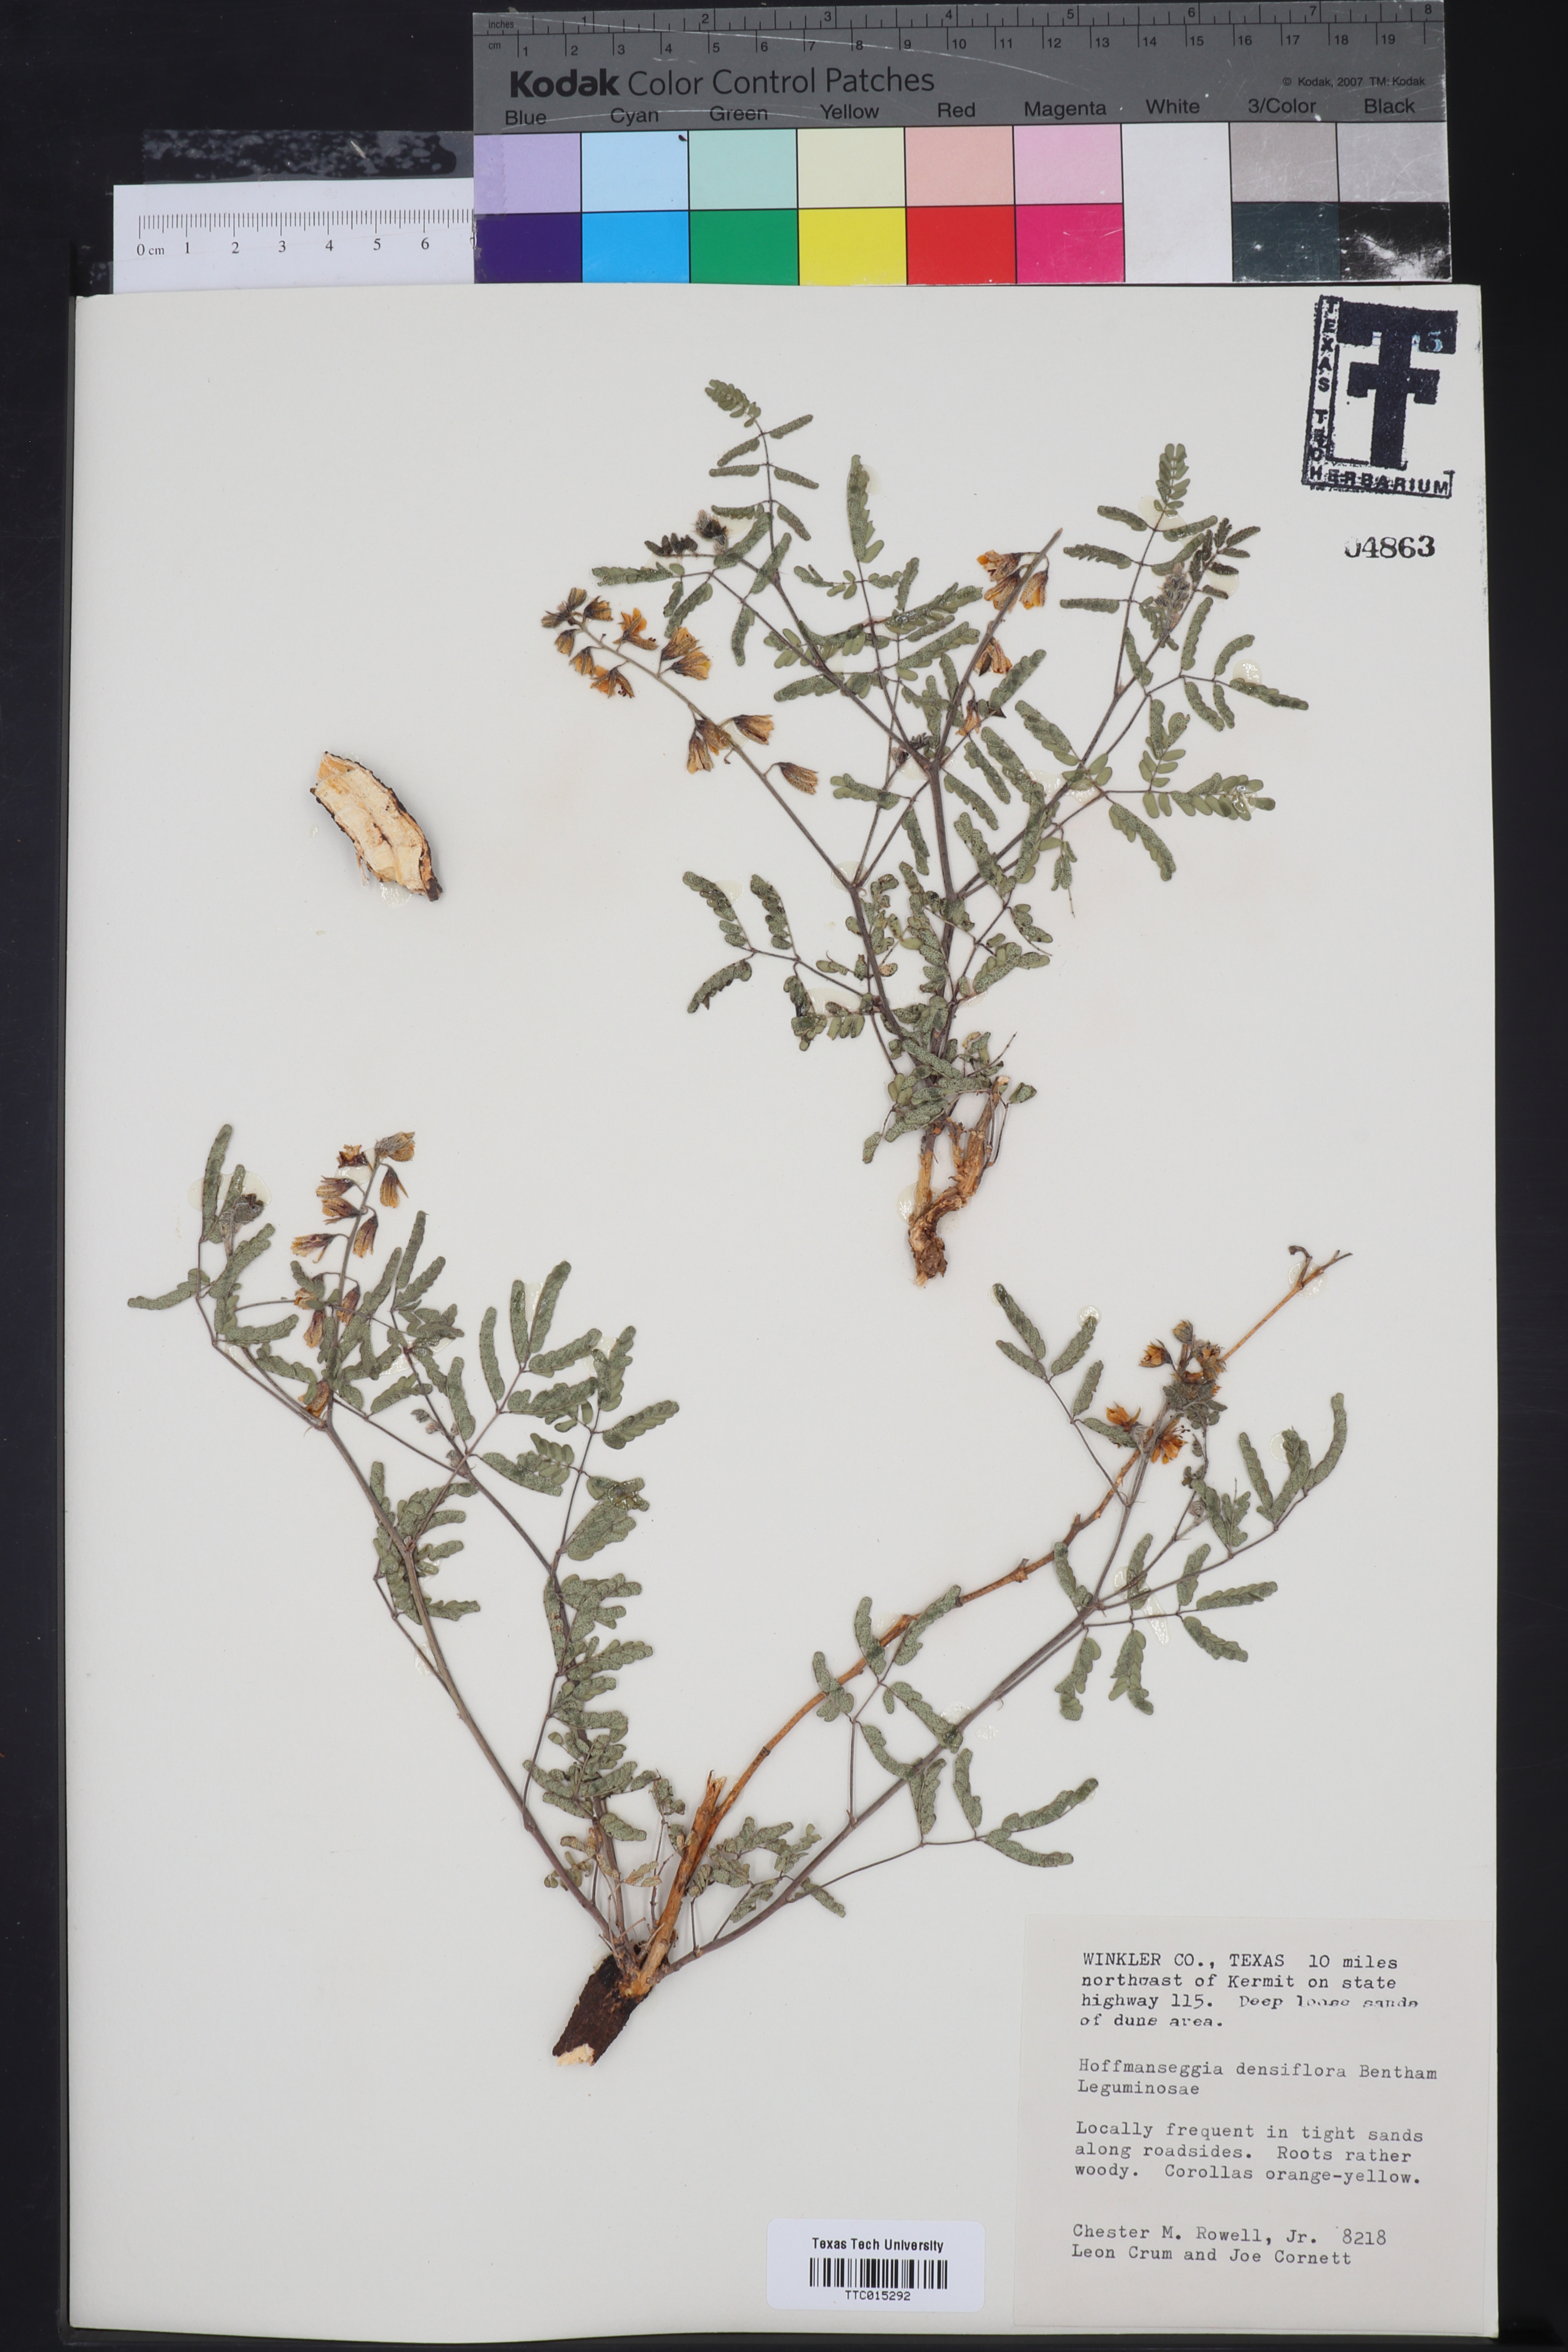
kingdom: Plantae
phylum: Tracheophyta
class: Magnoliopsida
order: Fabales
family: Fabaceae
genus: Hoffmannseggia
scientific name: Hoffmannseggia glauca
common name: Pignut
